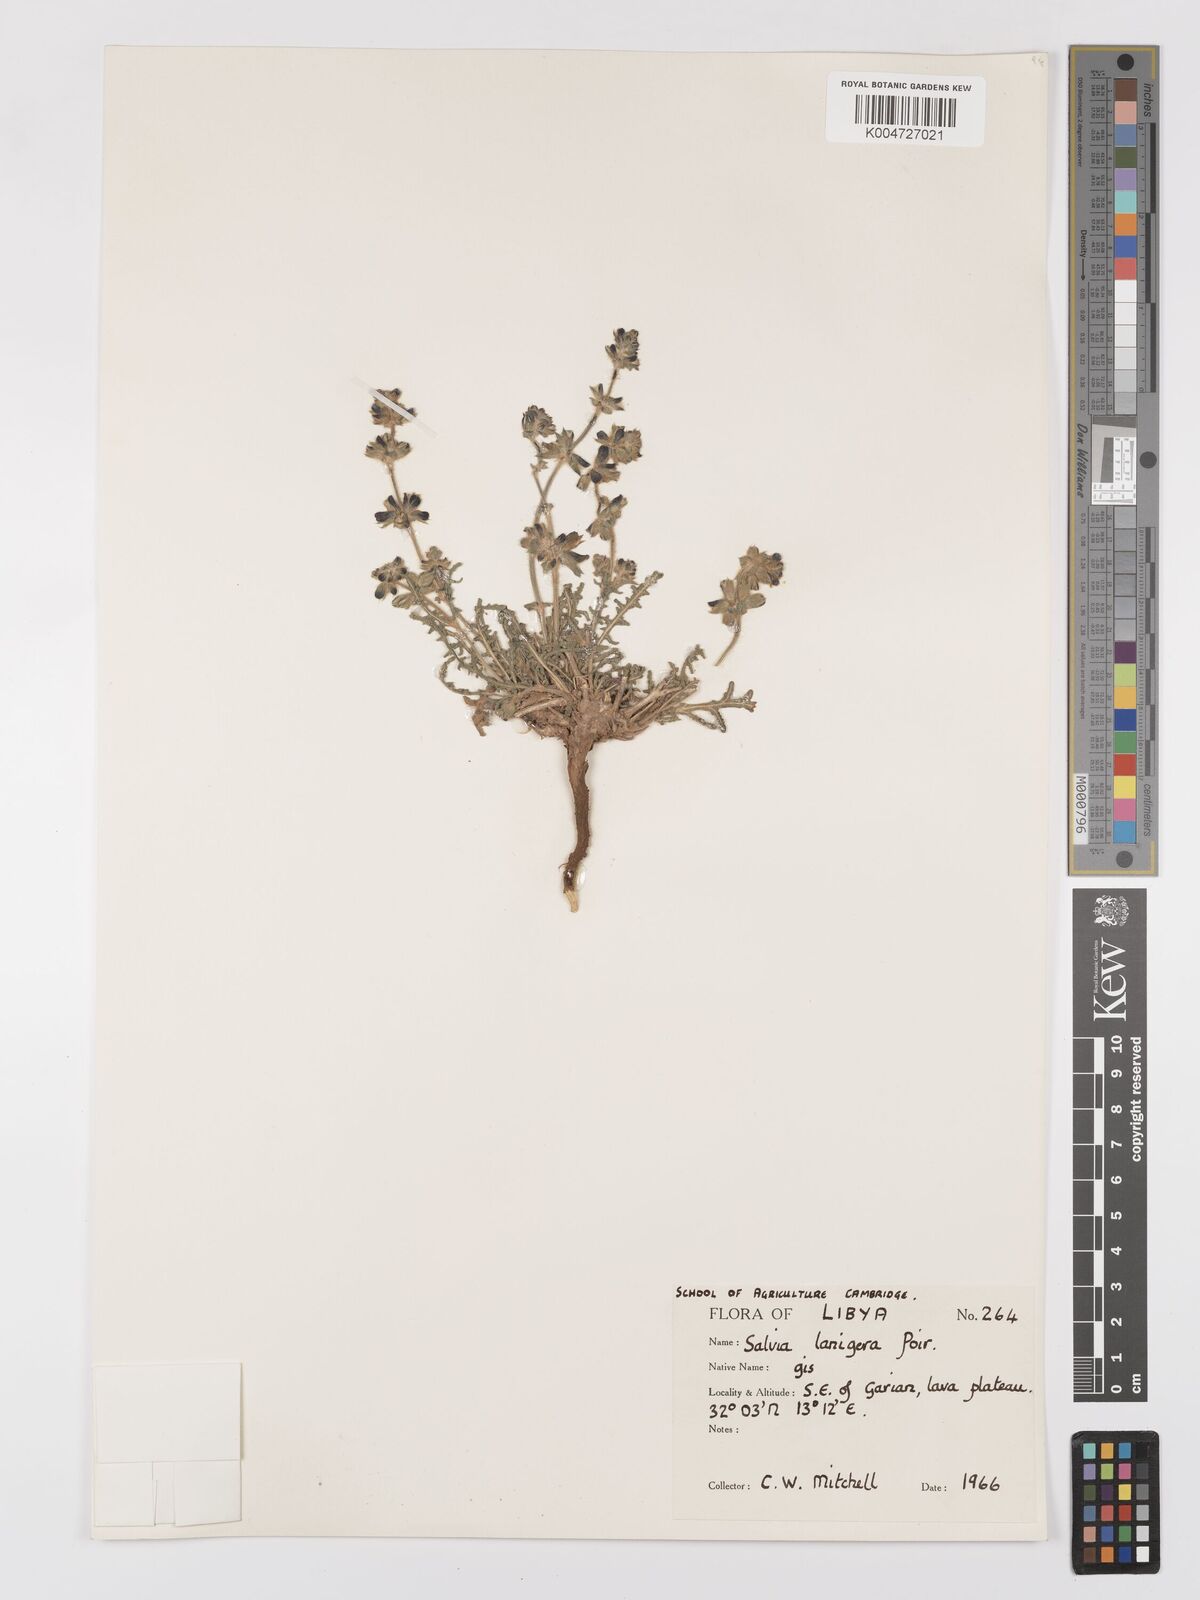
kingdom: Plantae
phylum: Tracheophyta
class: Magnoliopsida
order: Lamiales
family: Lamiaceae
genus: Salvia
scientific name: Salvia lanigera
